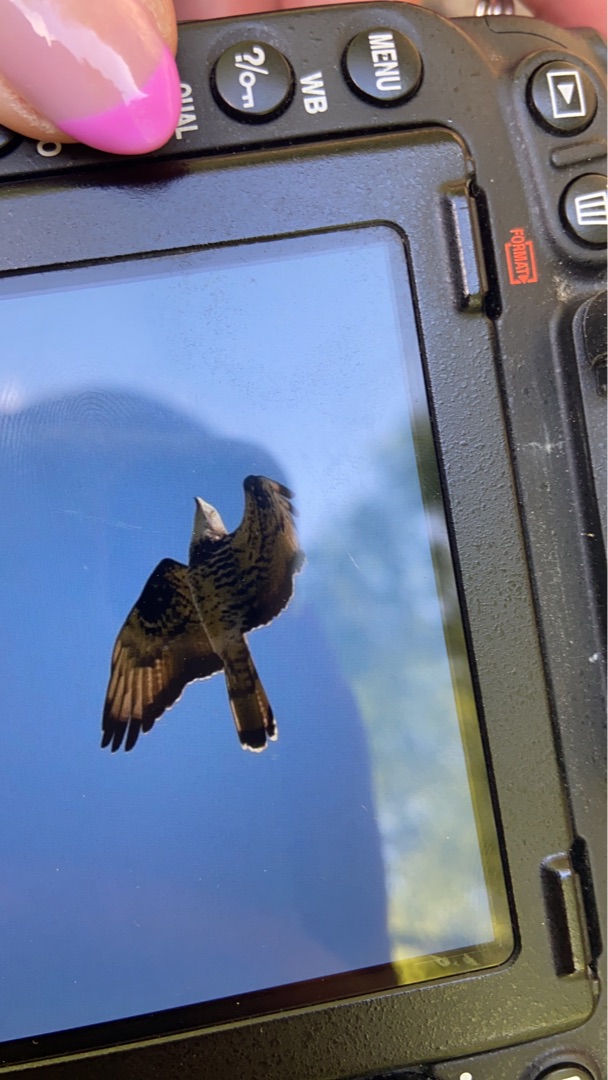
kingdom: Animalia
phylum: Chordata
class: Aves
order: Accipitriformes
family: Accipitridae
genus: Pernis
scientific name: Pernis apivorus
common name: Hvepsevåge
